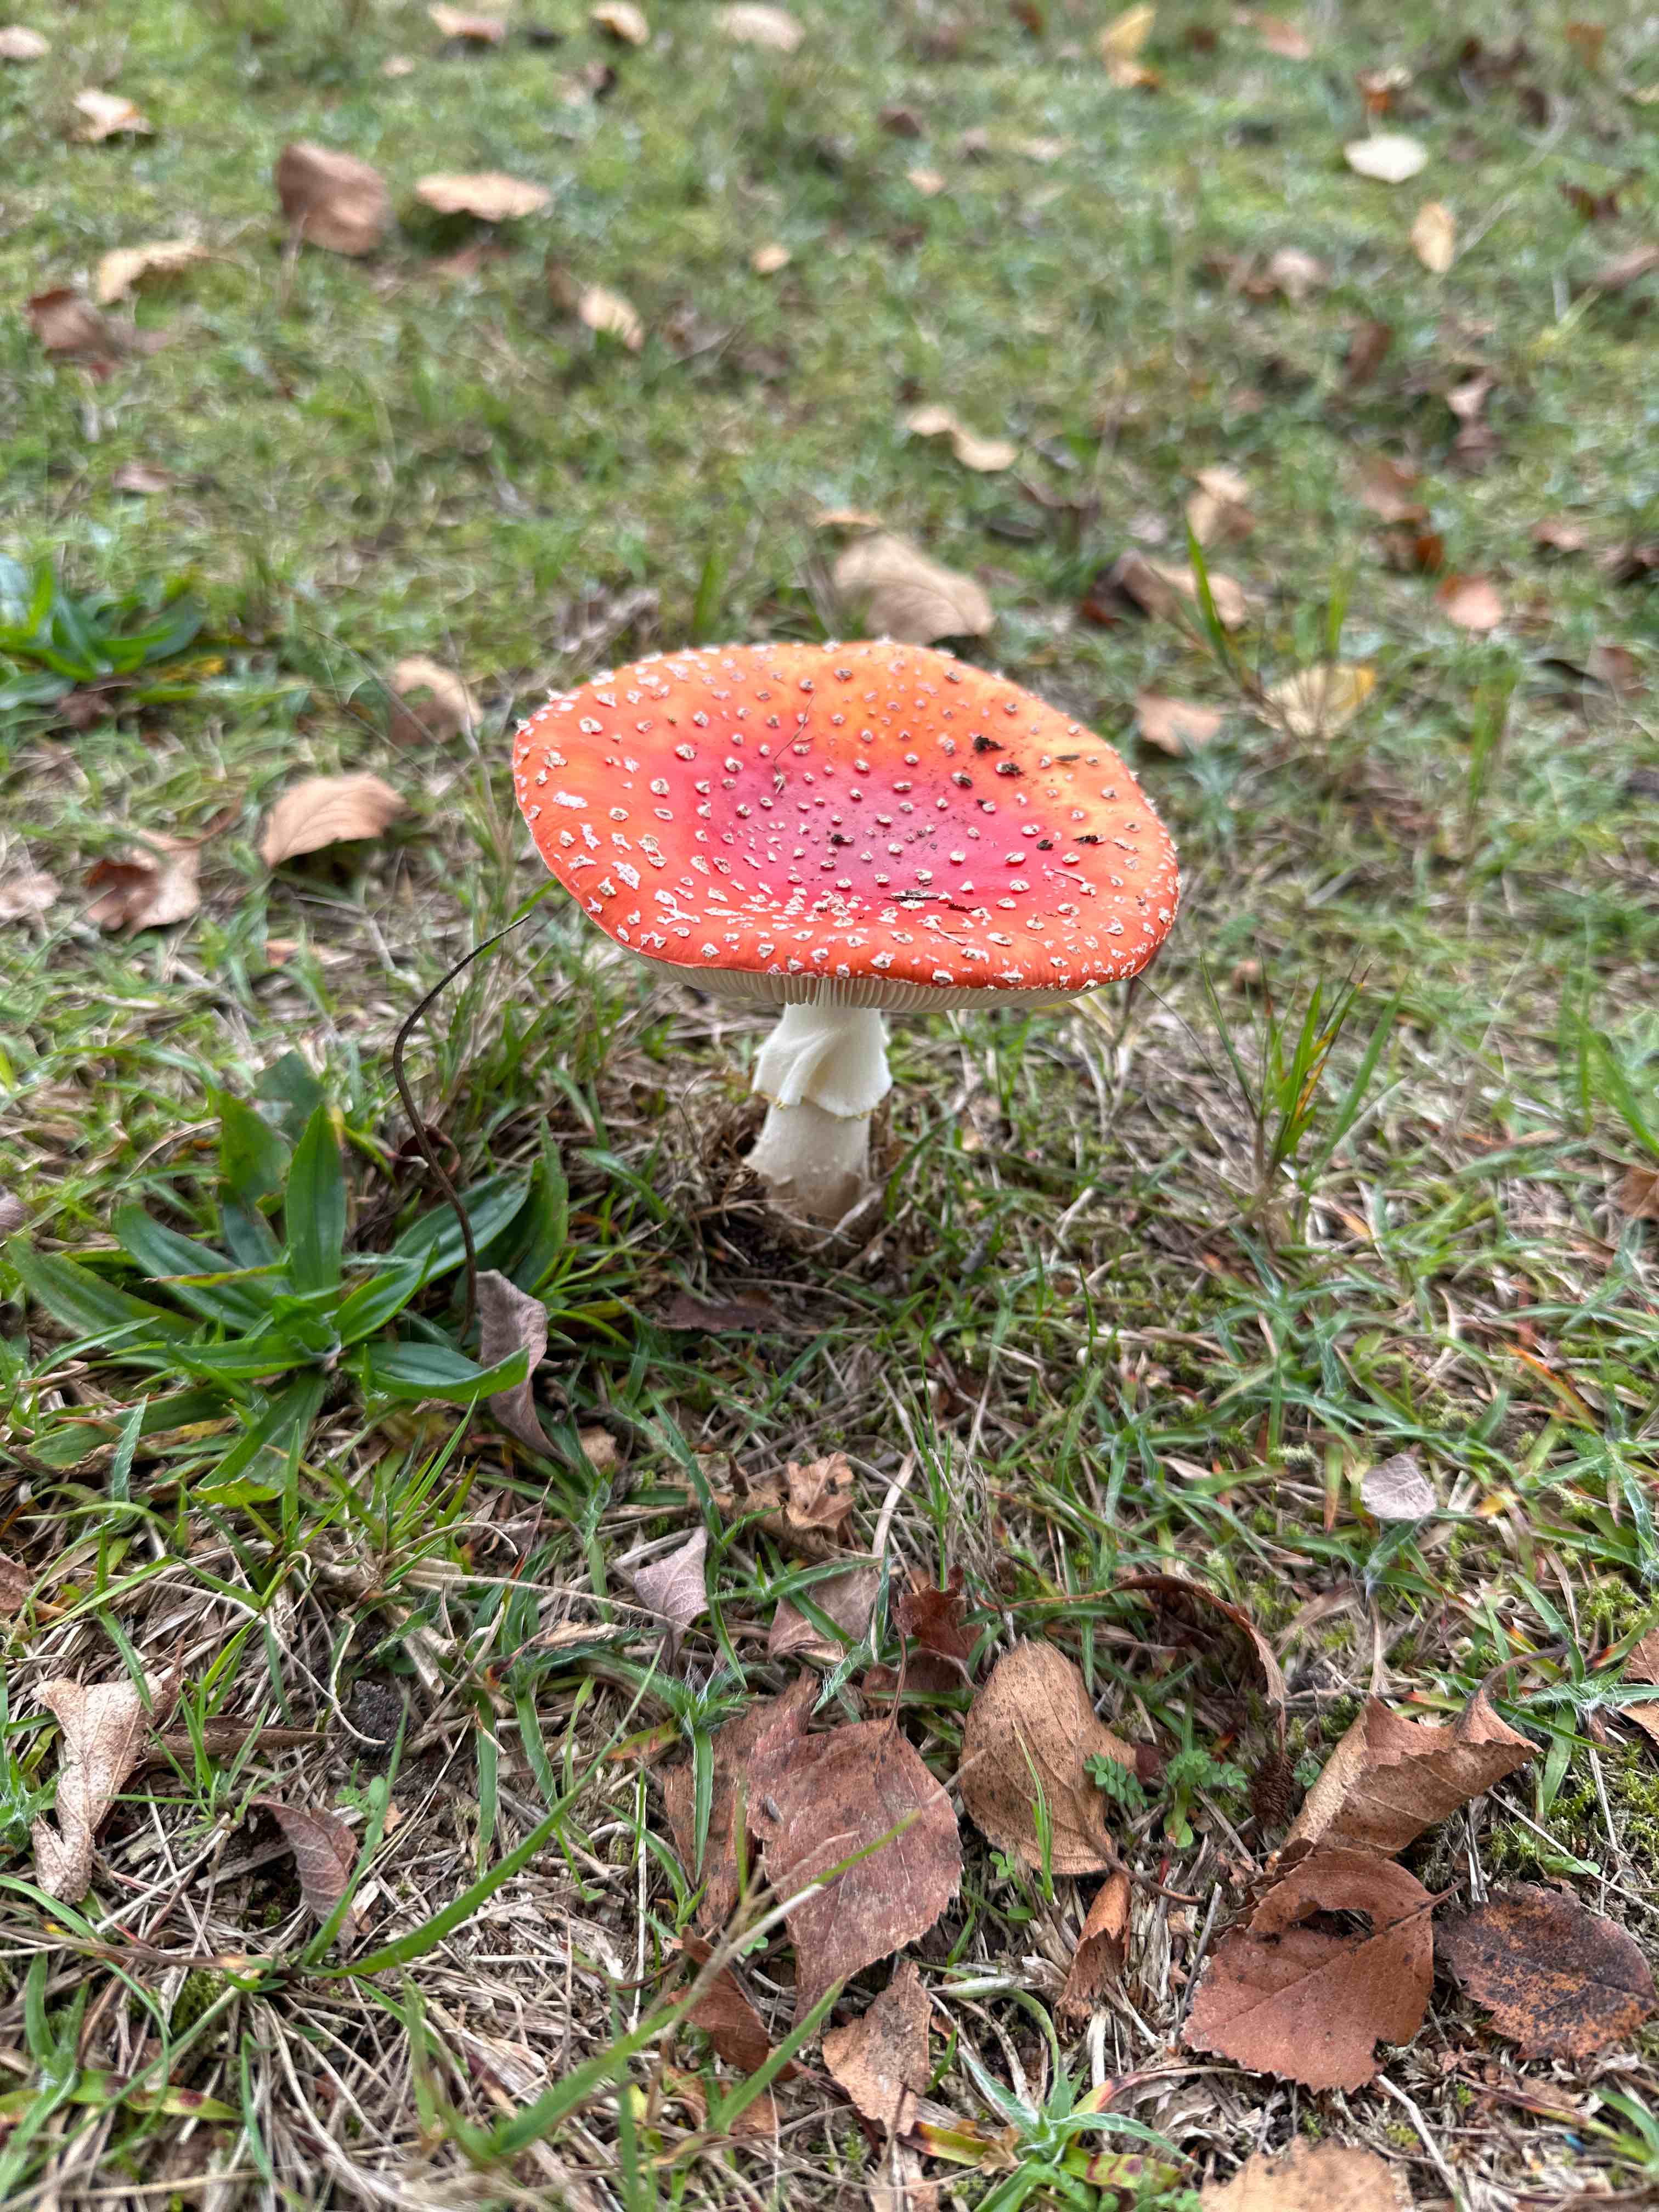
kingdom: Fungi
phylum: Basidiomycota
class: Agaricomycetes
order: Agaricales
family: Amanitaceae
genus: Amanita
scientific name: Amanita muscaria
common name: rød fluesvamp
